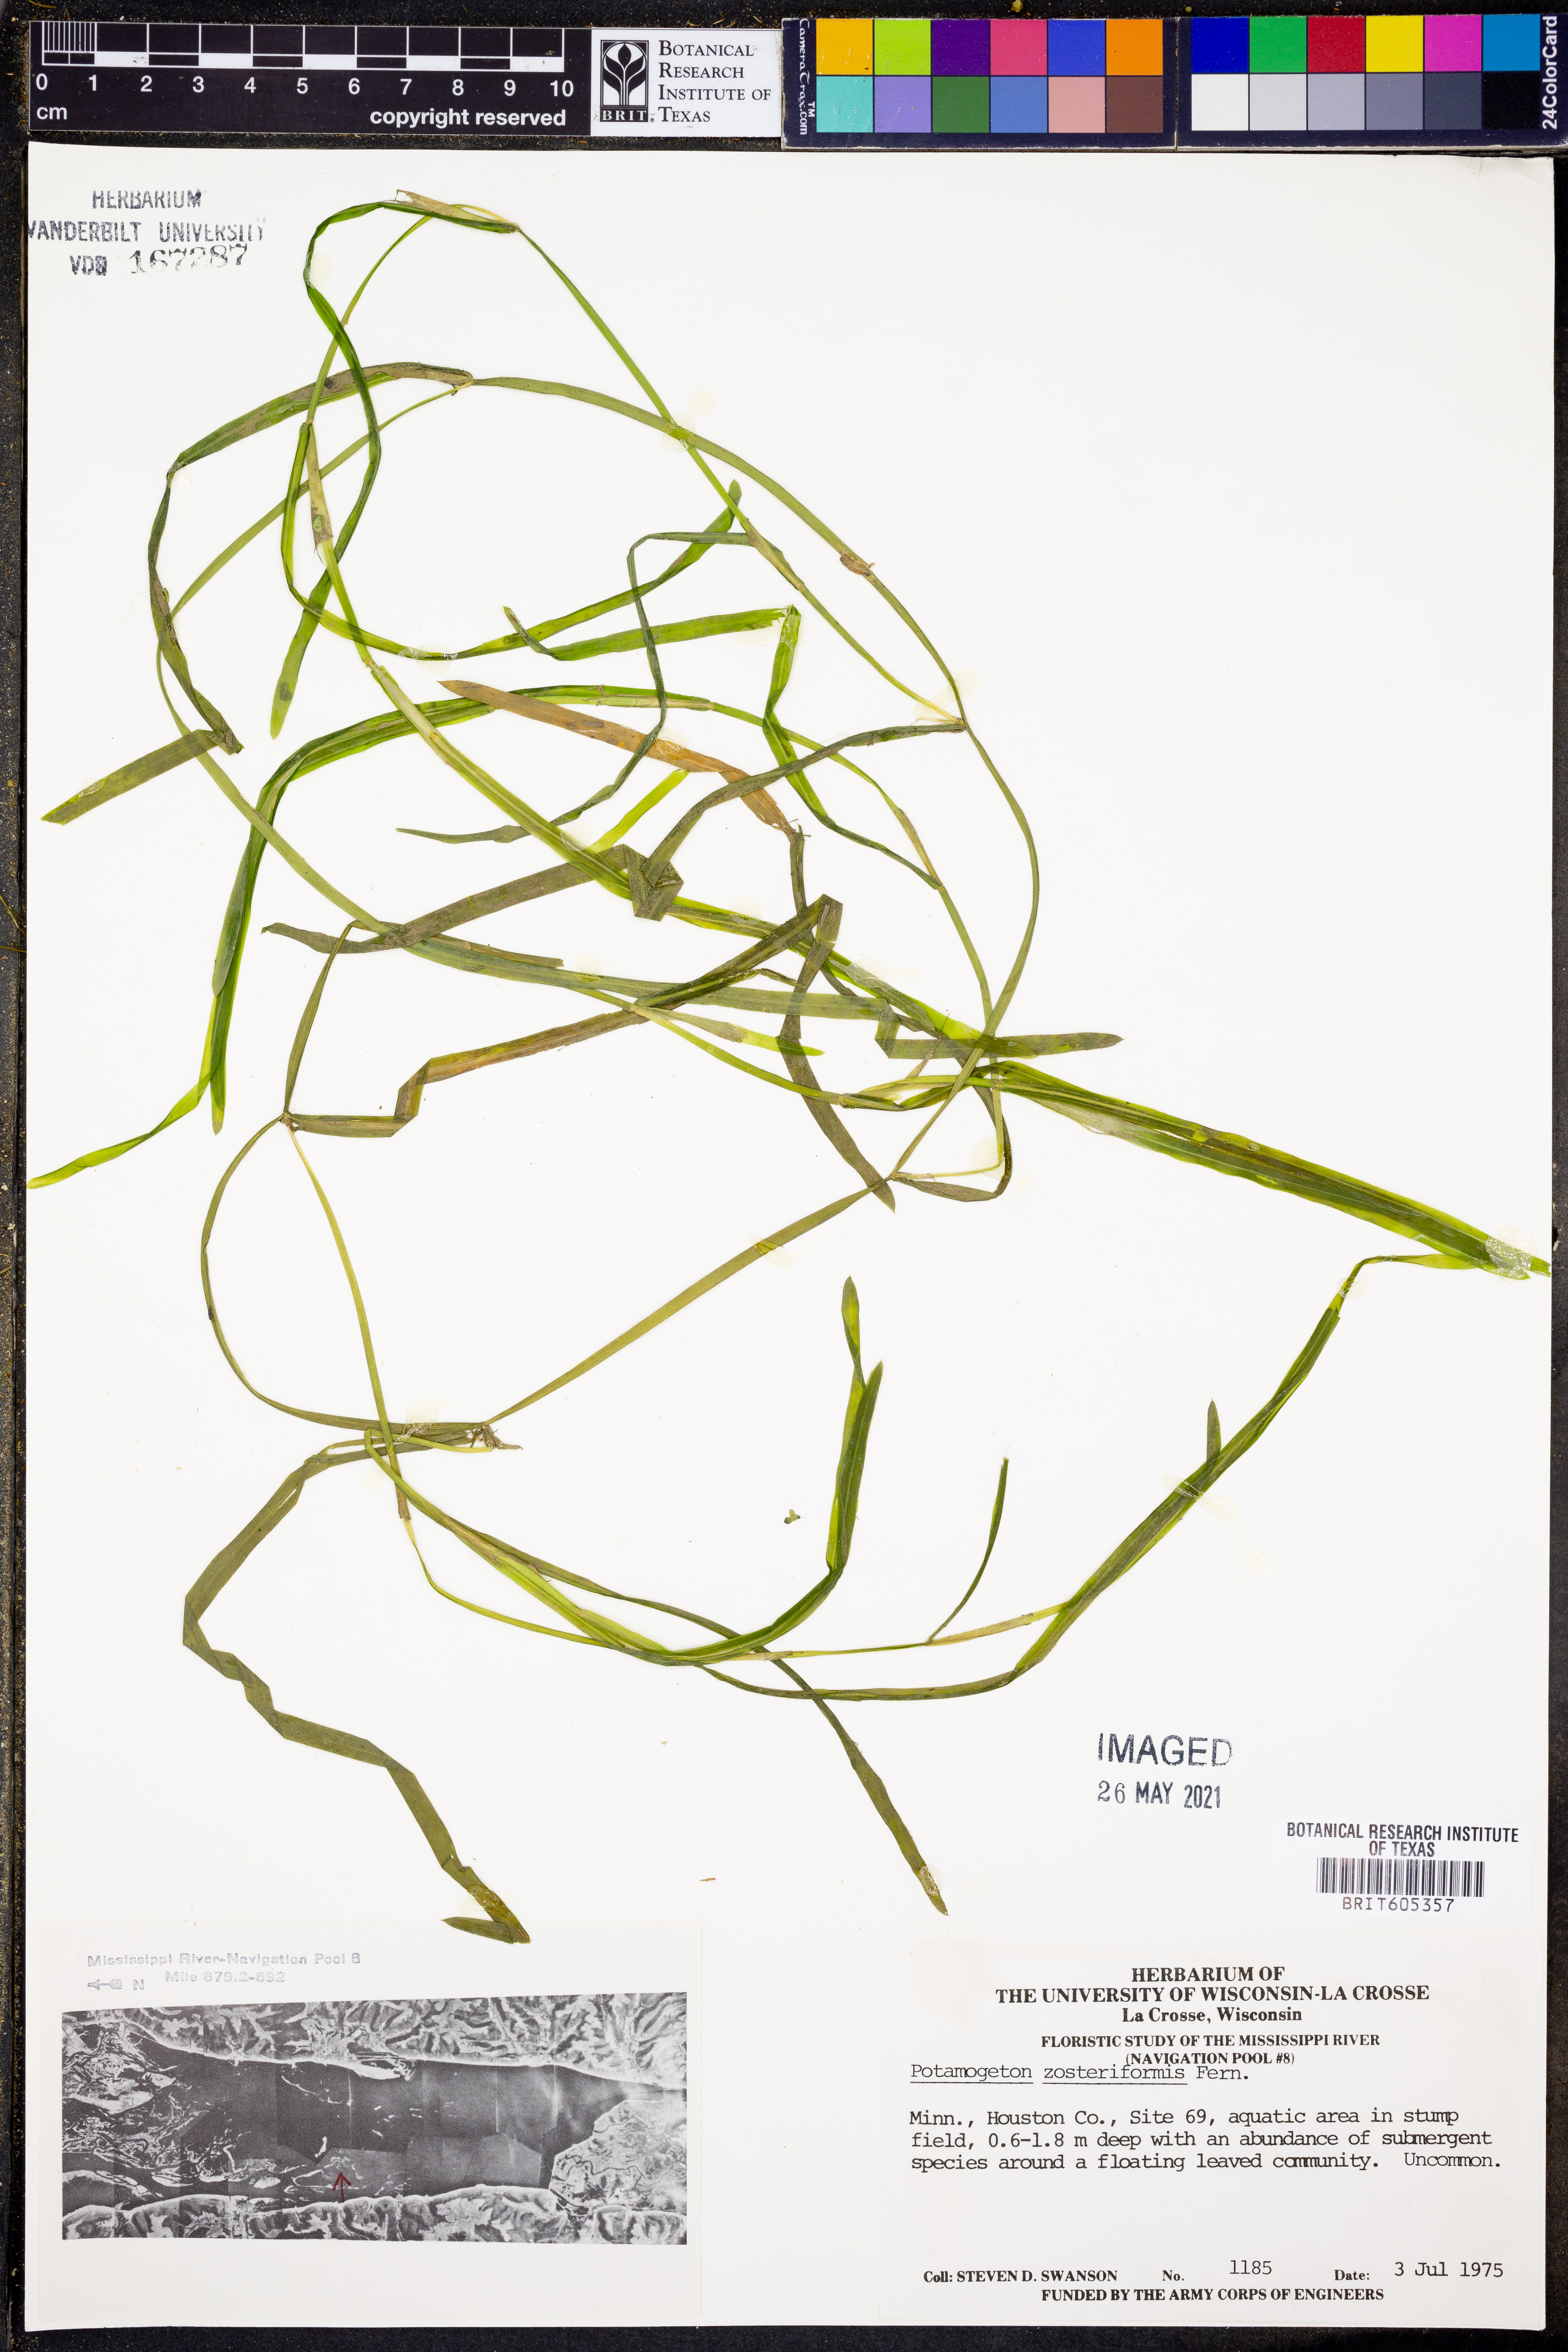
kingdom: Plantae
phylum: Tracheophyta
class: Liliopsida
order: Alismatales
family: Potamogetonaceae
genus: Potamogeton
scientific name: Potamogeton zosteriformis
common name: Eelgrass pondweed
